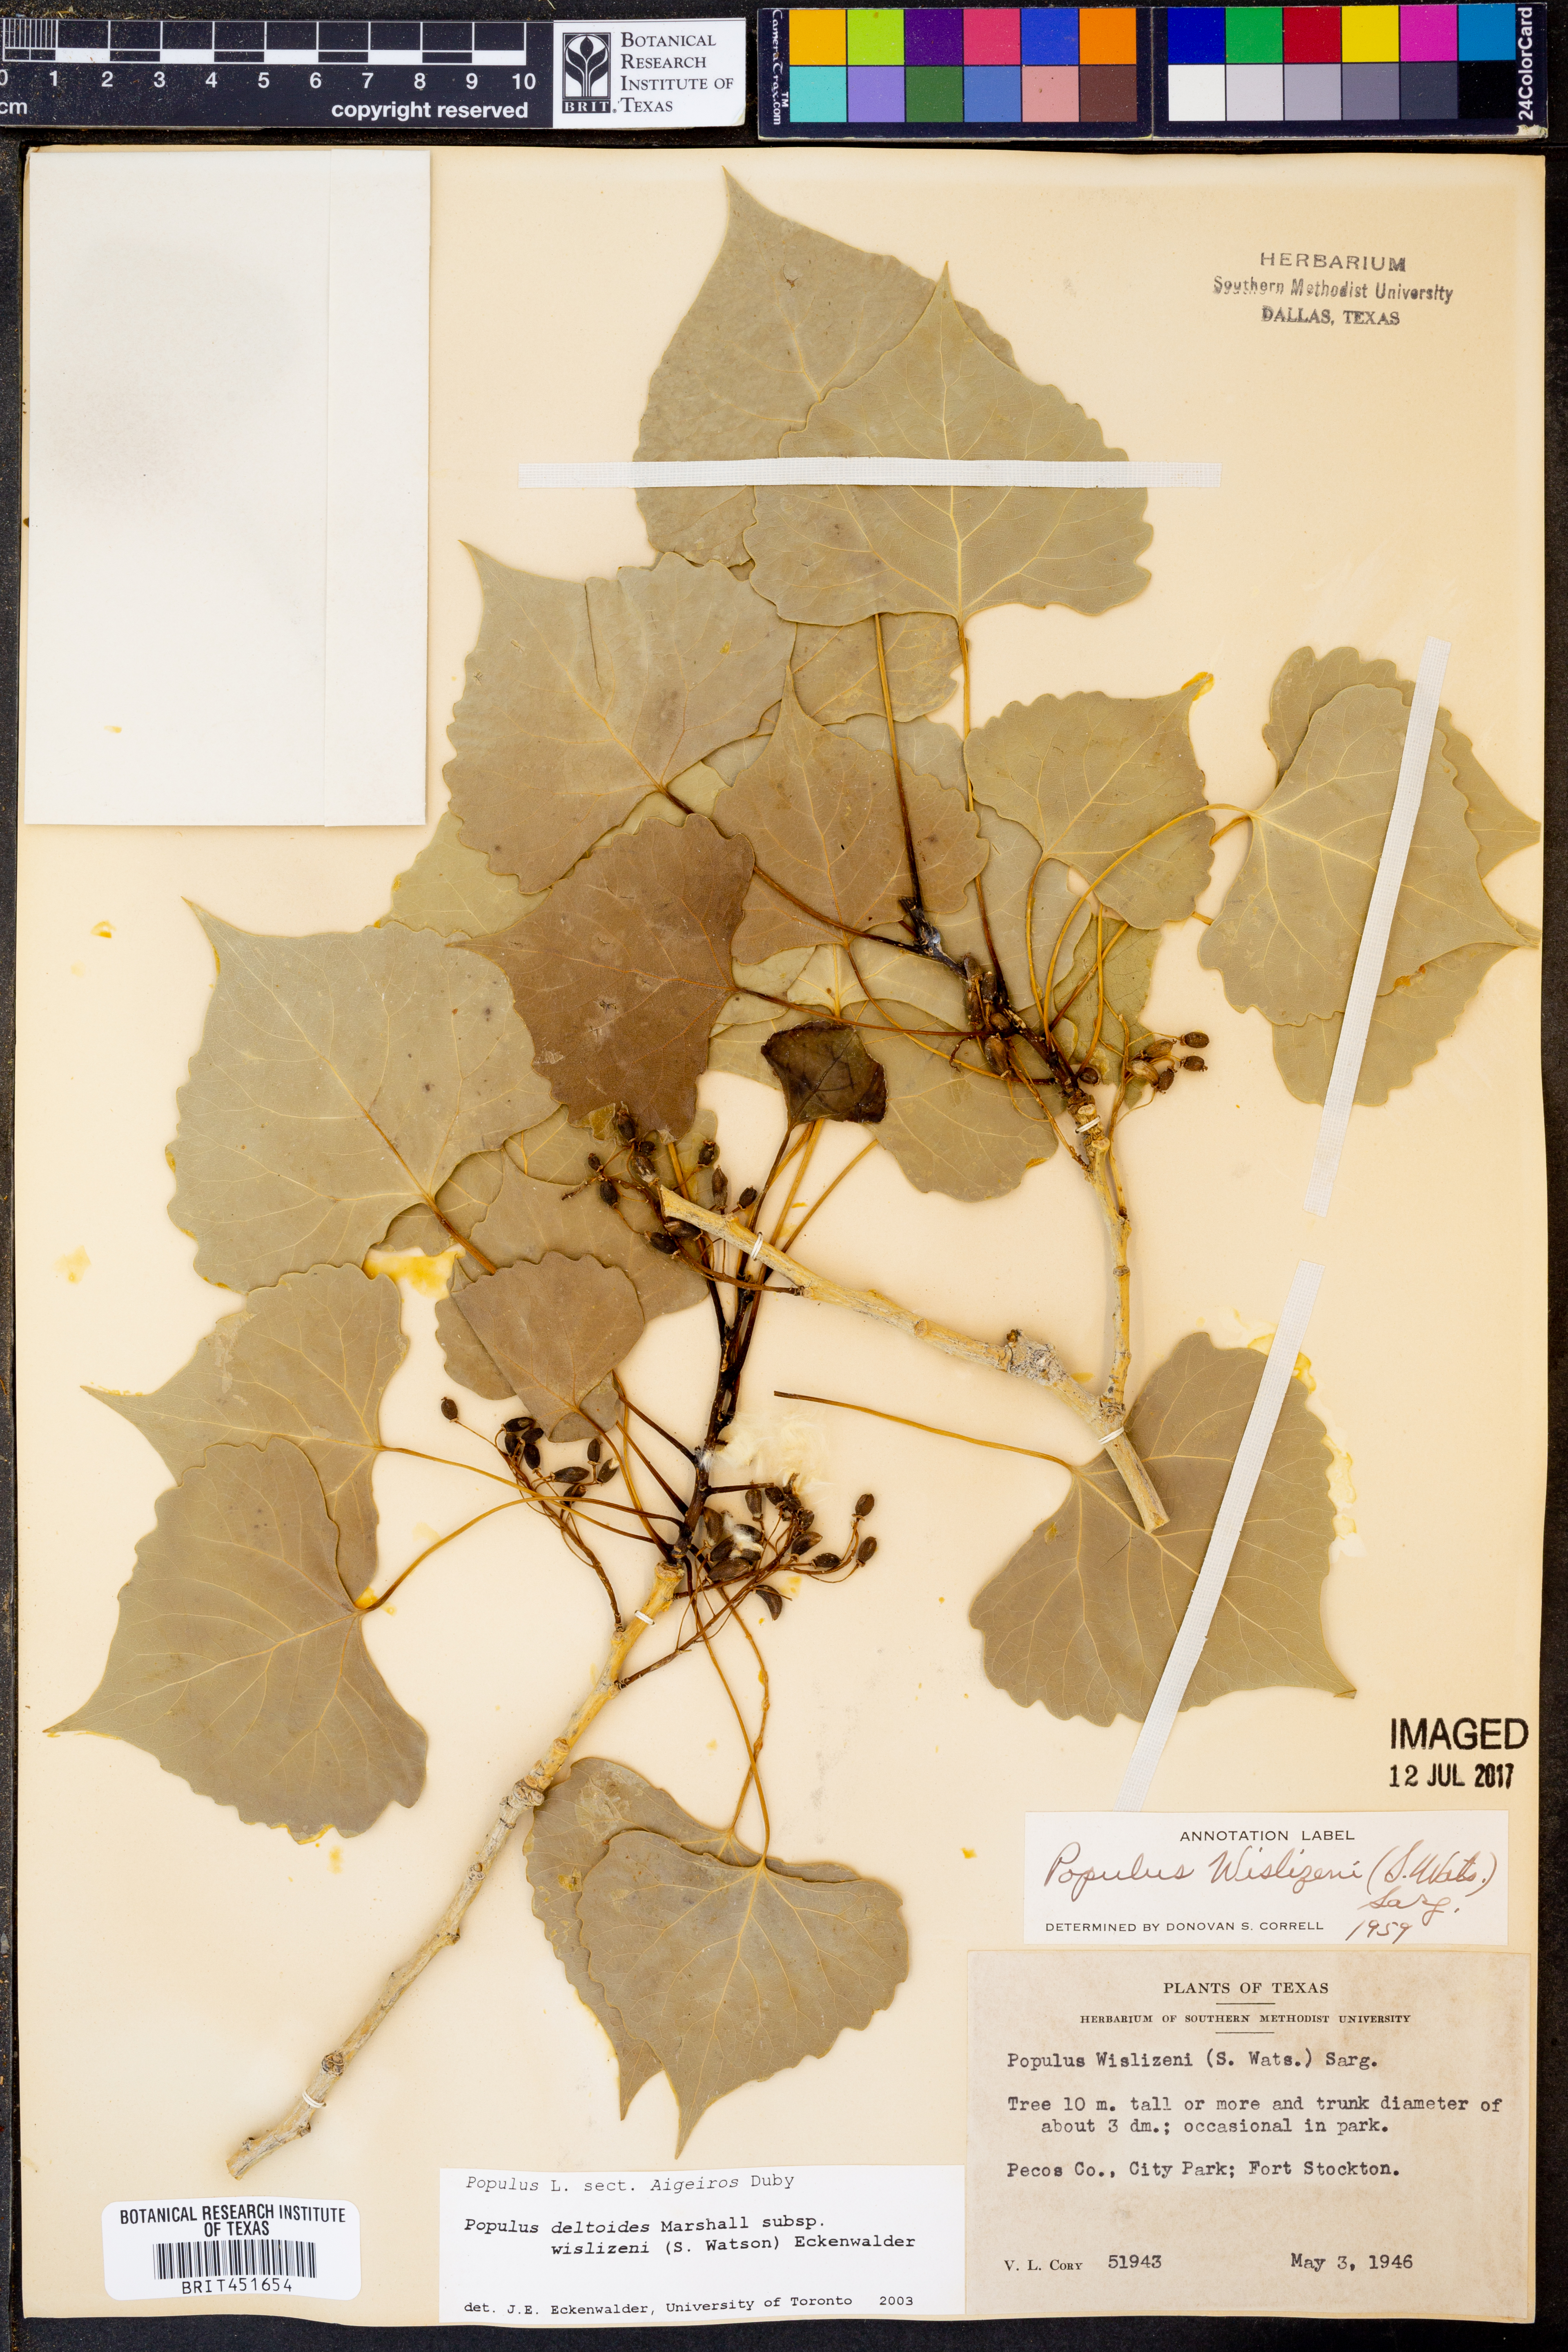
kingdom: Plantae
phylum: Tracheophyta
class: Magnoliopsida
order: Malpighiales
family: Salicaceae
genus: Populus
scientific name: Populus deltoides
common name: Eastern cottonwood
